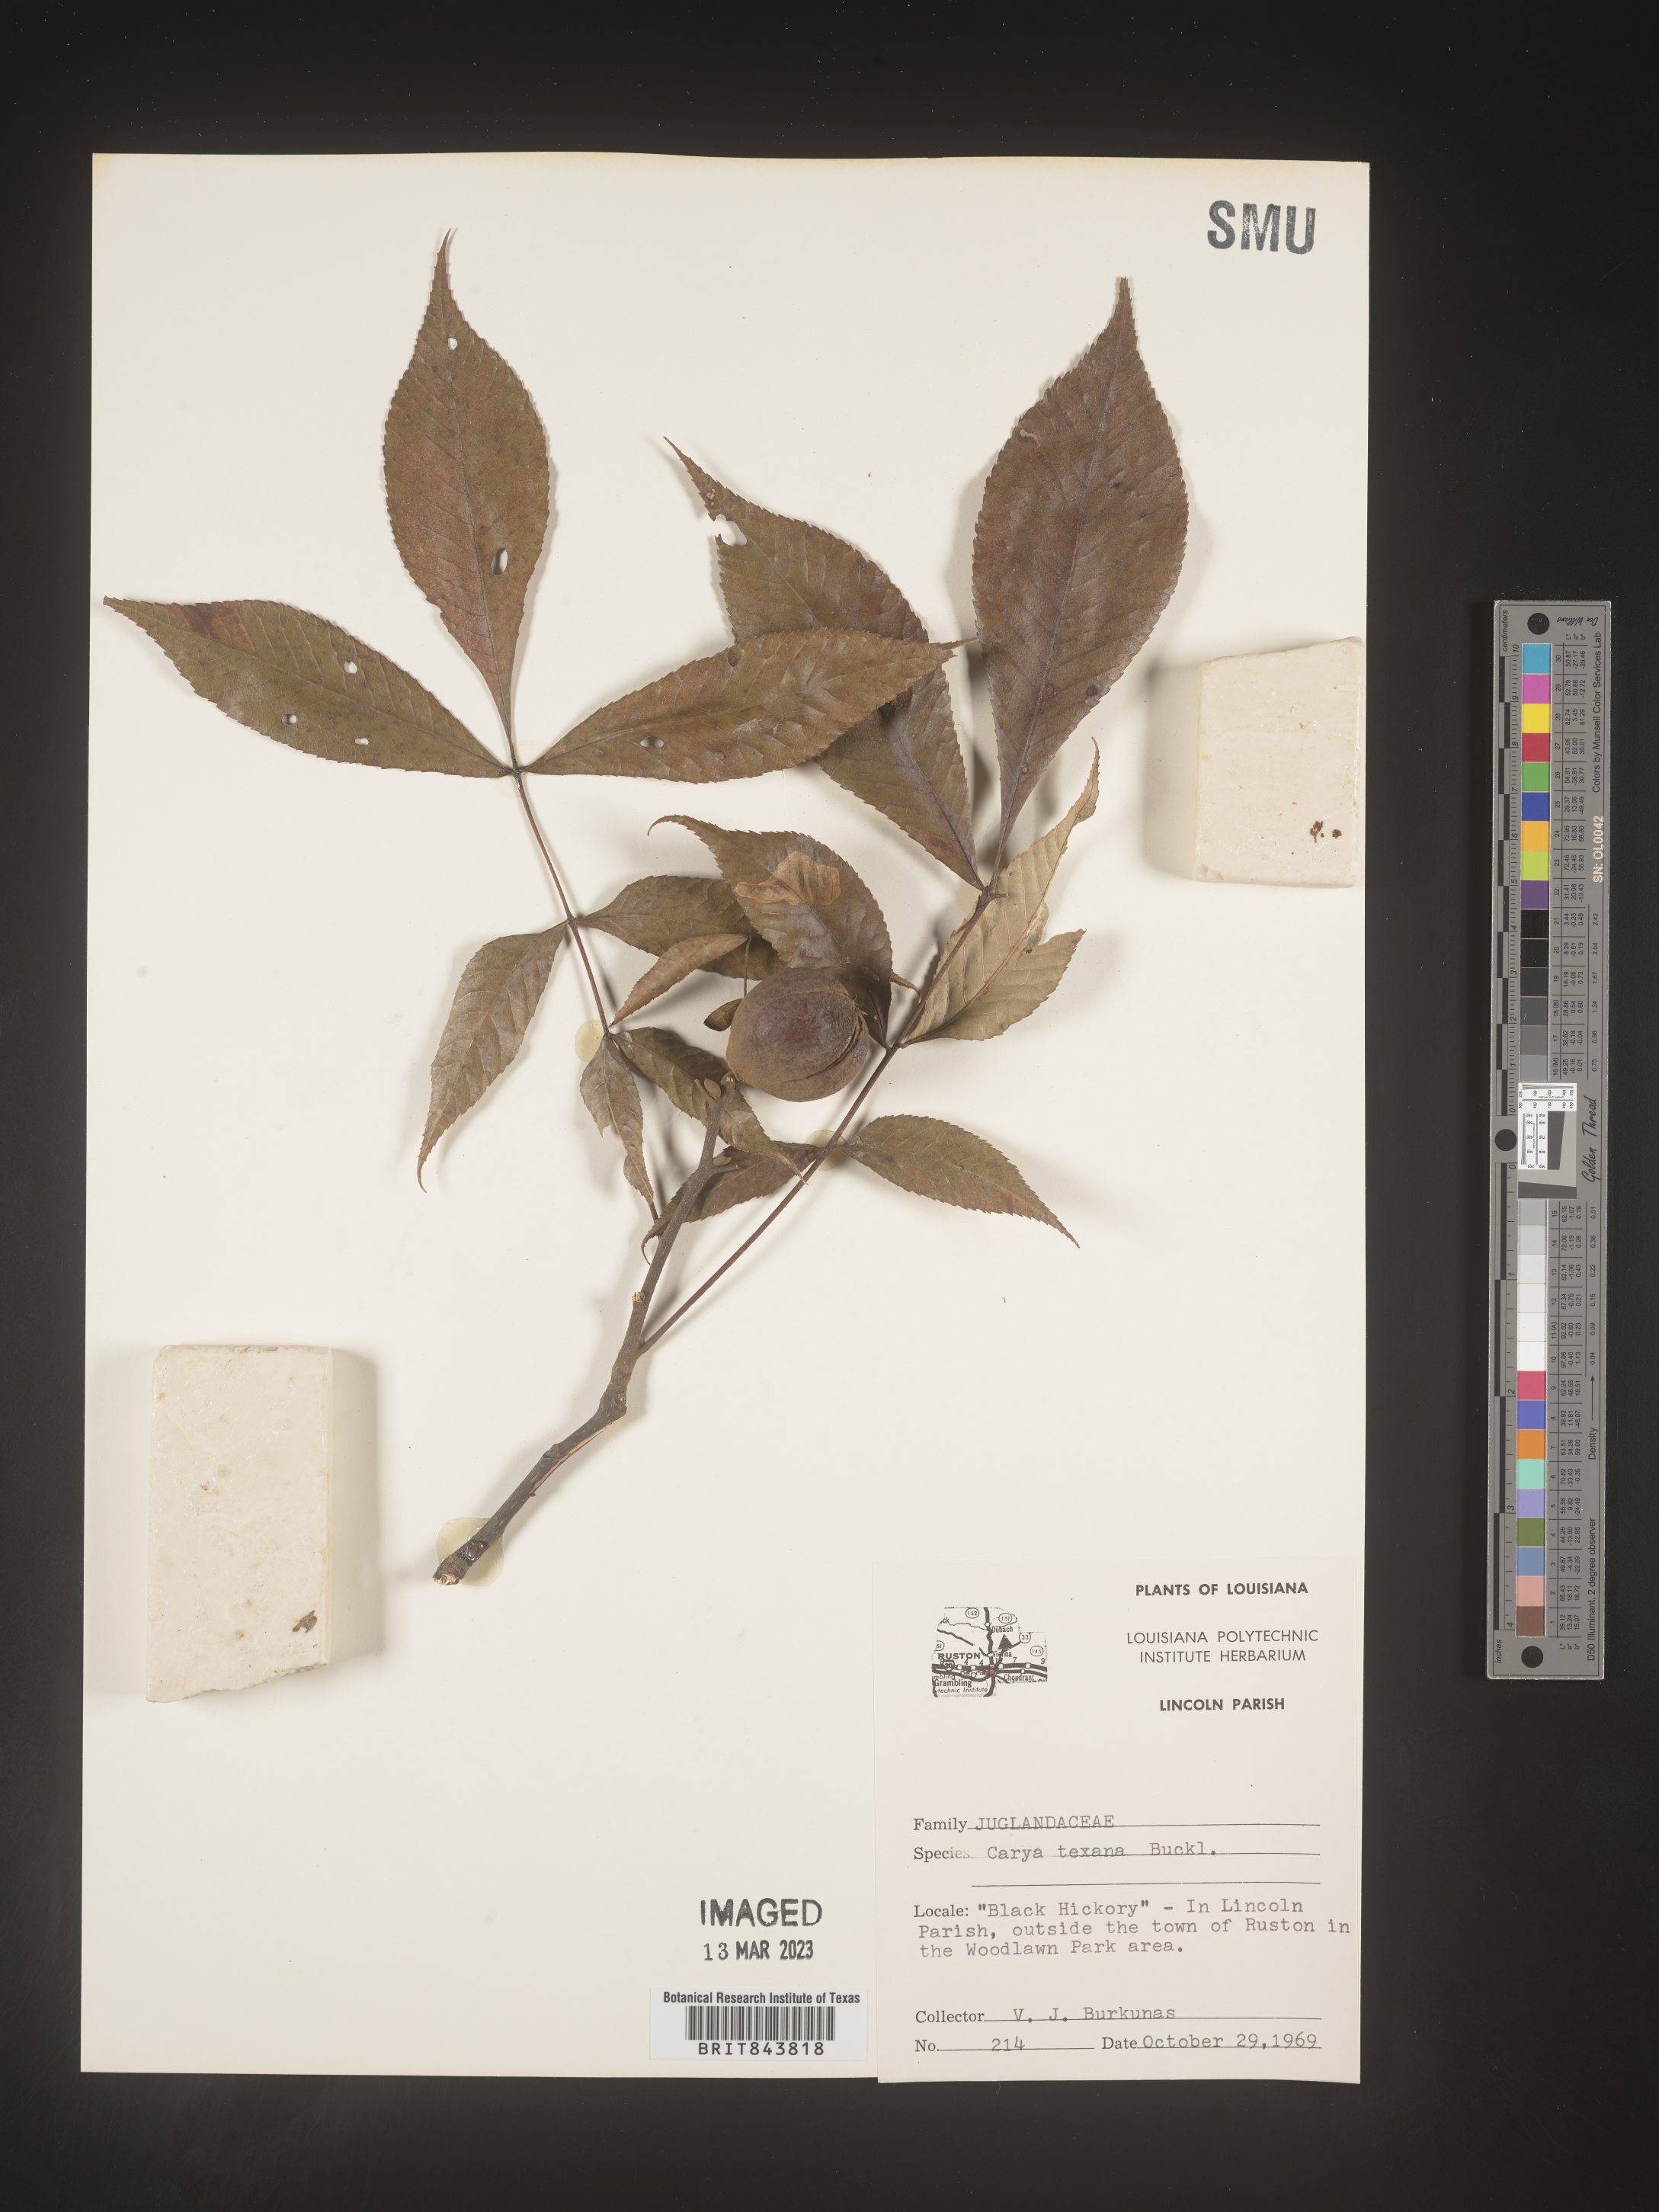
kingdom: Plantae
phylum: Tracheophyta
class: Magnoliopsida
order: Fagales
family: Juglandaceae
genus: Carya
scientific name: Carya texana
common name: Black hickory
